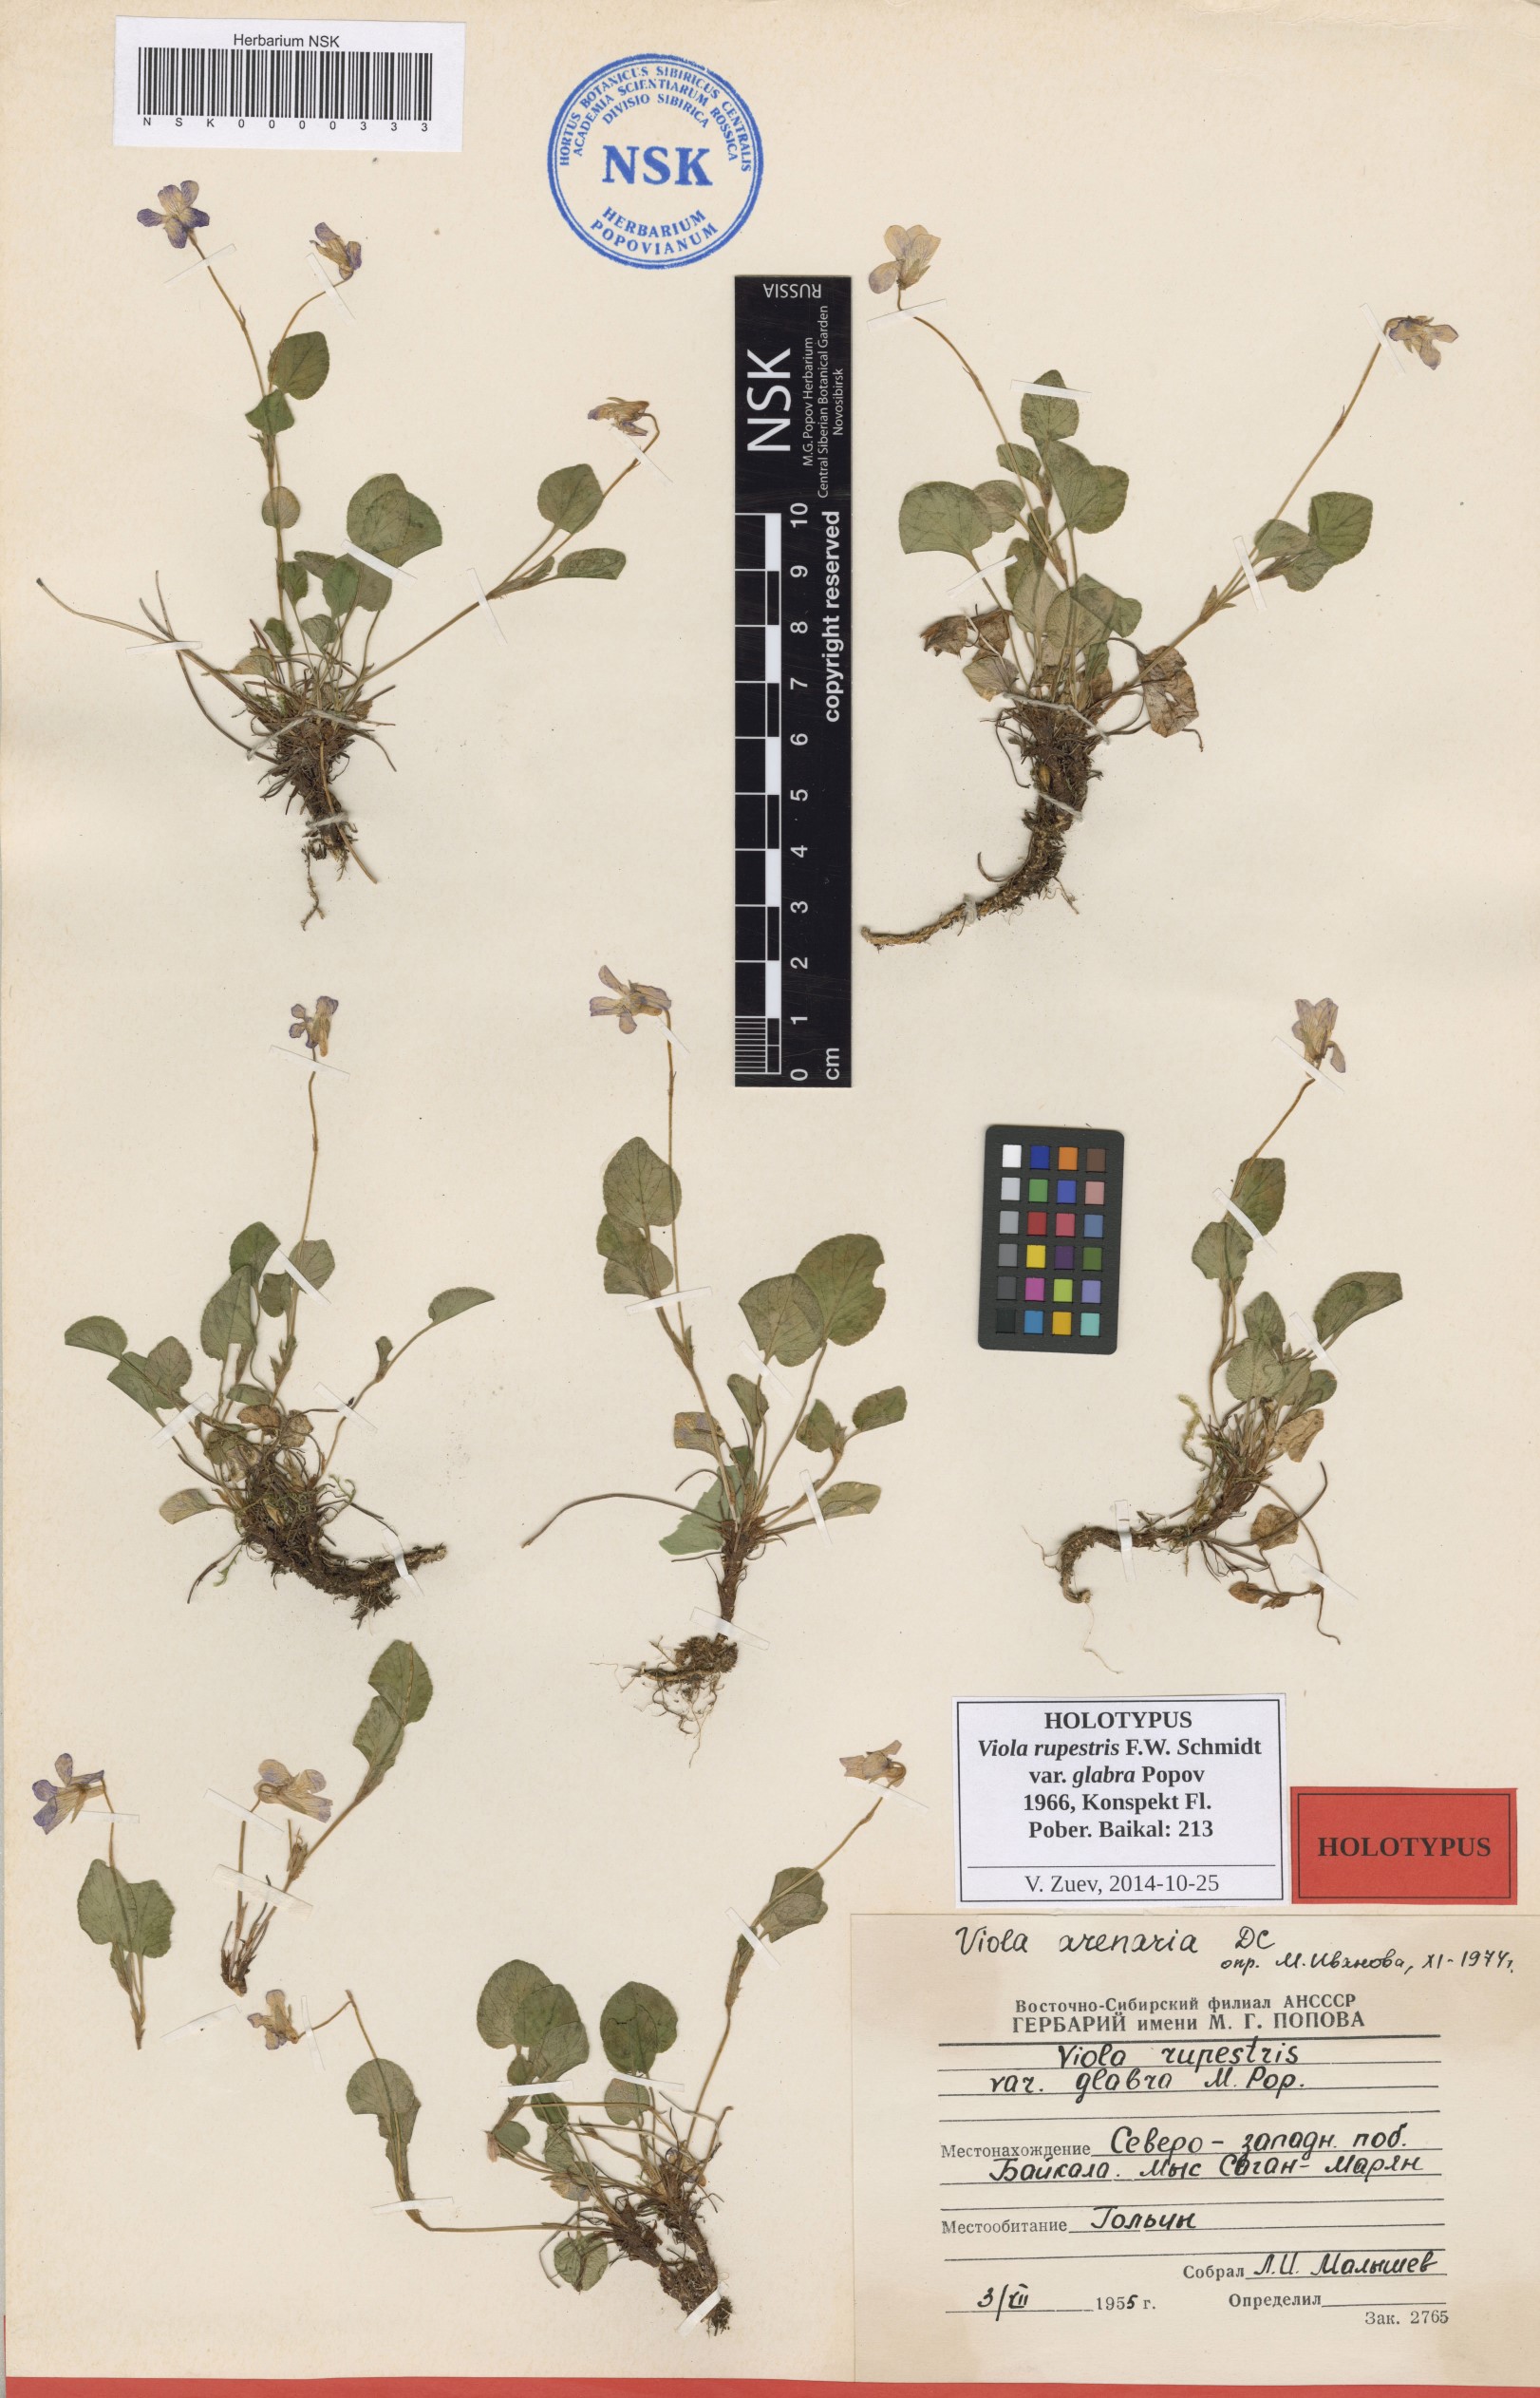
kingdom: Plantae
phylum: Tracheophyta
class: Magnoliopsida
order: Malpighiales
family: Violaceae
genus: Viola
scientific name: Viola rupestris
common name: Teesdale violet
